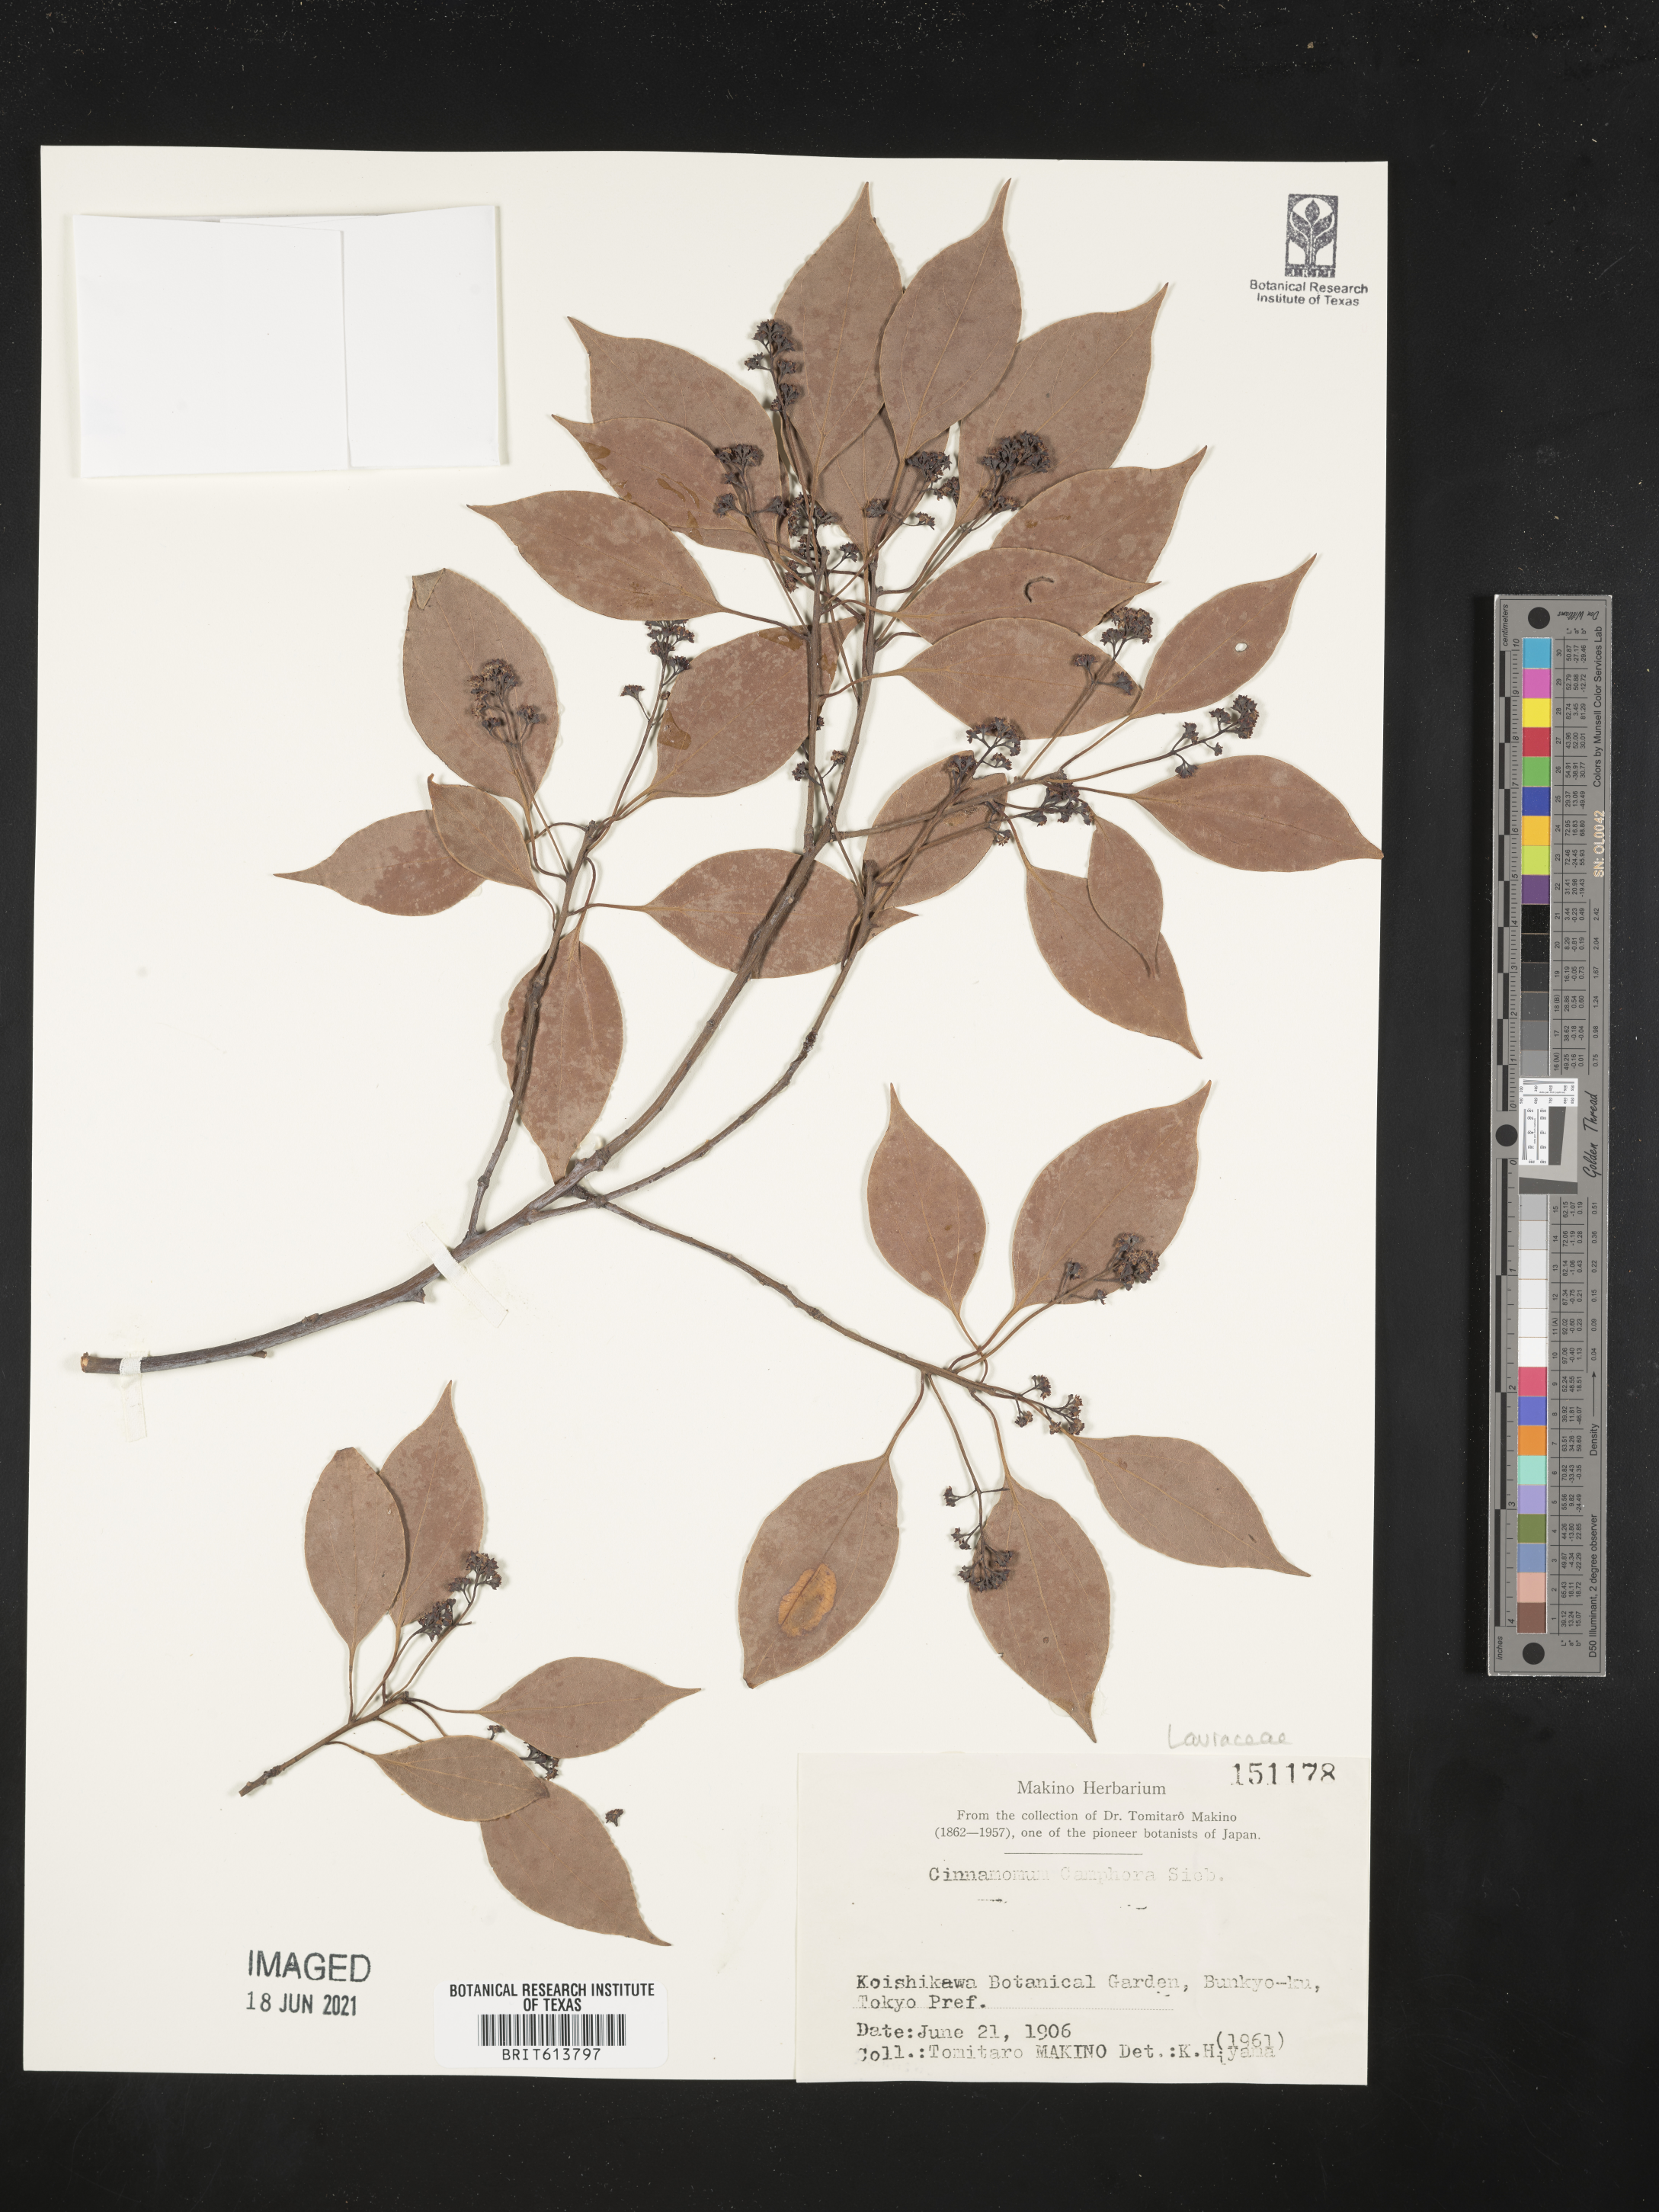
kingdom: Plantae
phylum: Tracheophyta
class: Magnoliopsida
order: Laurales
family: Lauraceae
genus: Cinnamomum
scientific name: Cinnamomum camphora
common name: Camphortree
